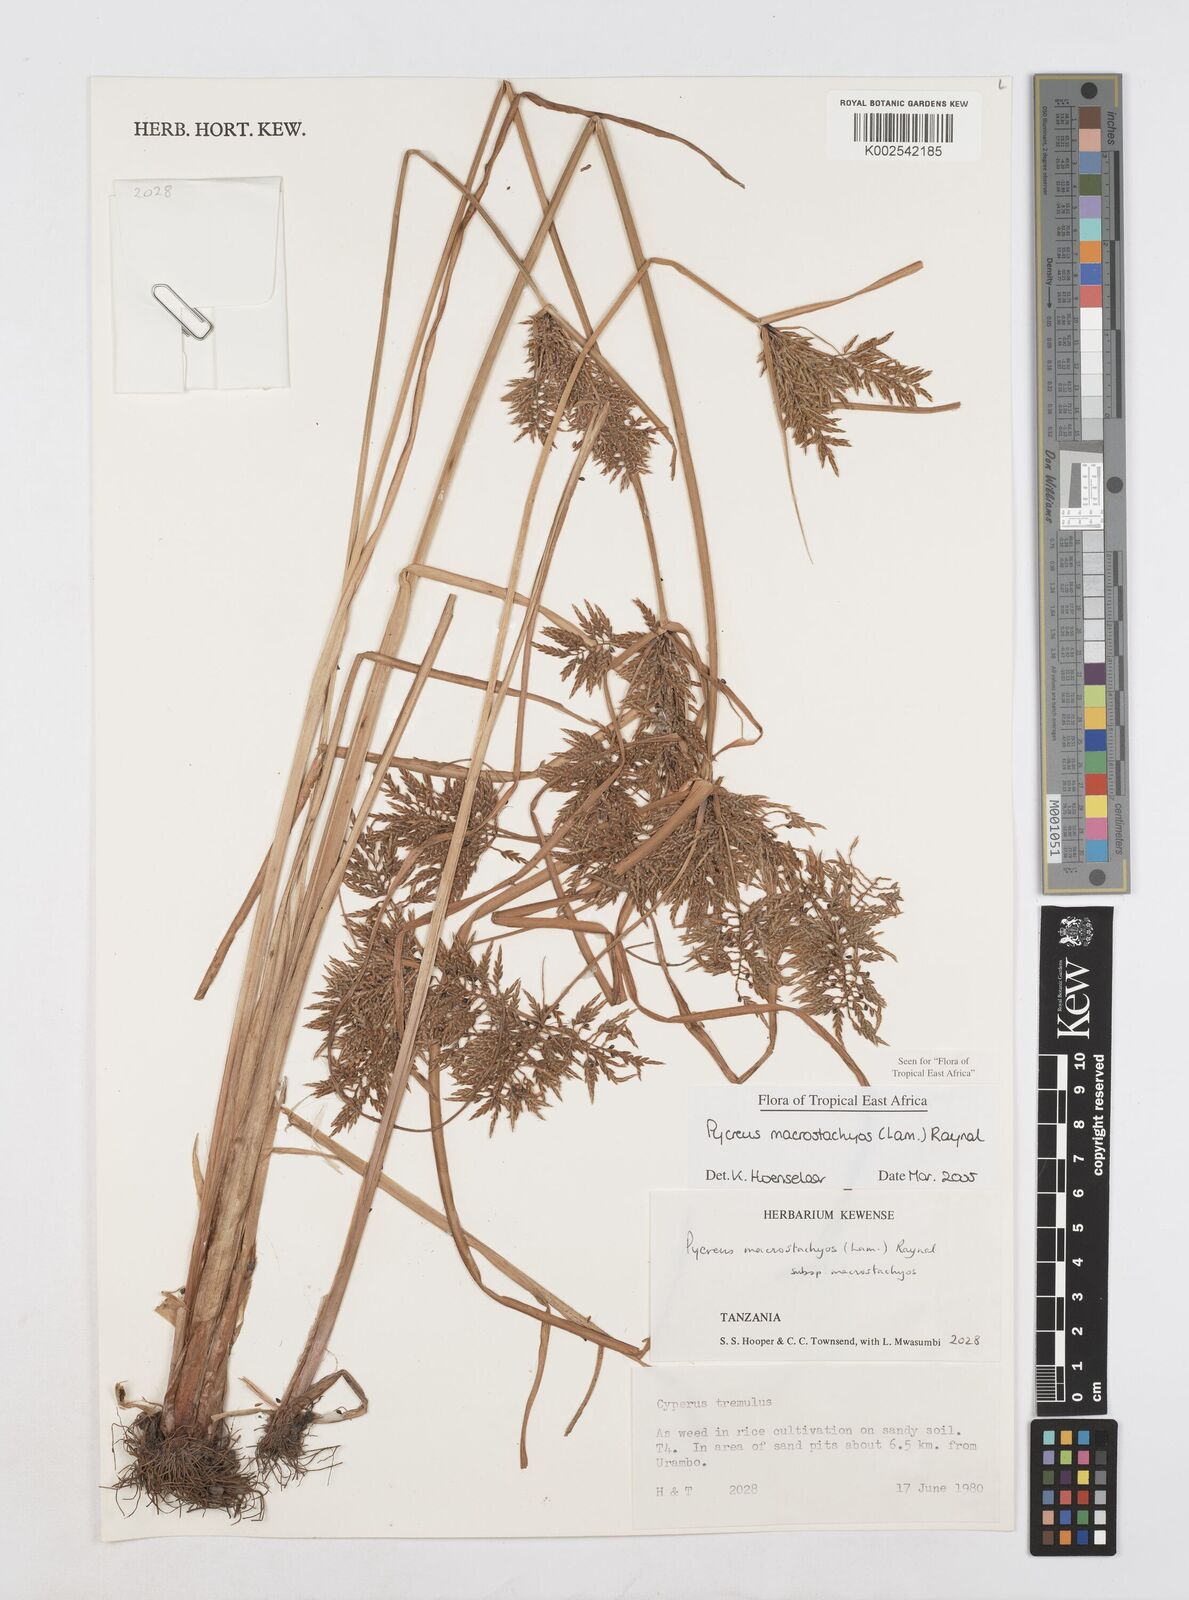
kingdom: Plantae
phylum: Tracheophyta
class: Liliopsida
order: Poales
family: Cyperaceae
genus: Cyperus
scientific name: Cyperus macrostachyos
